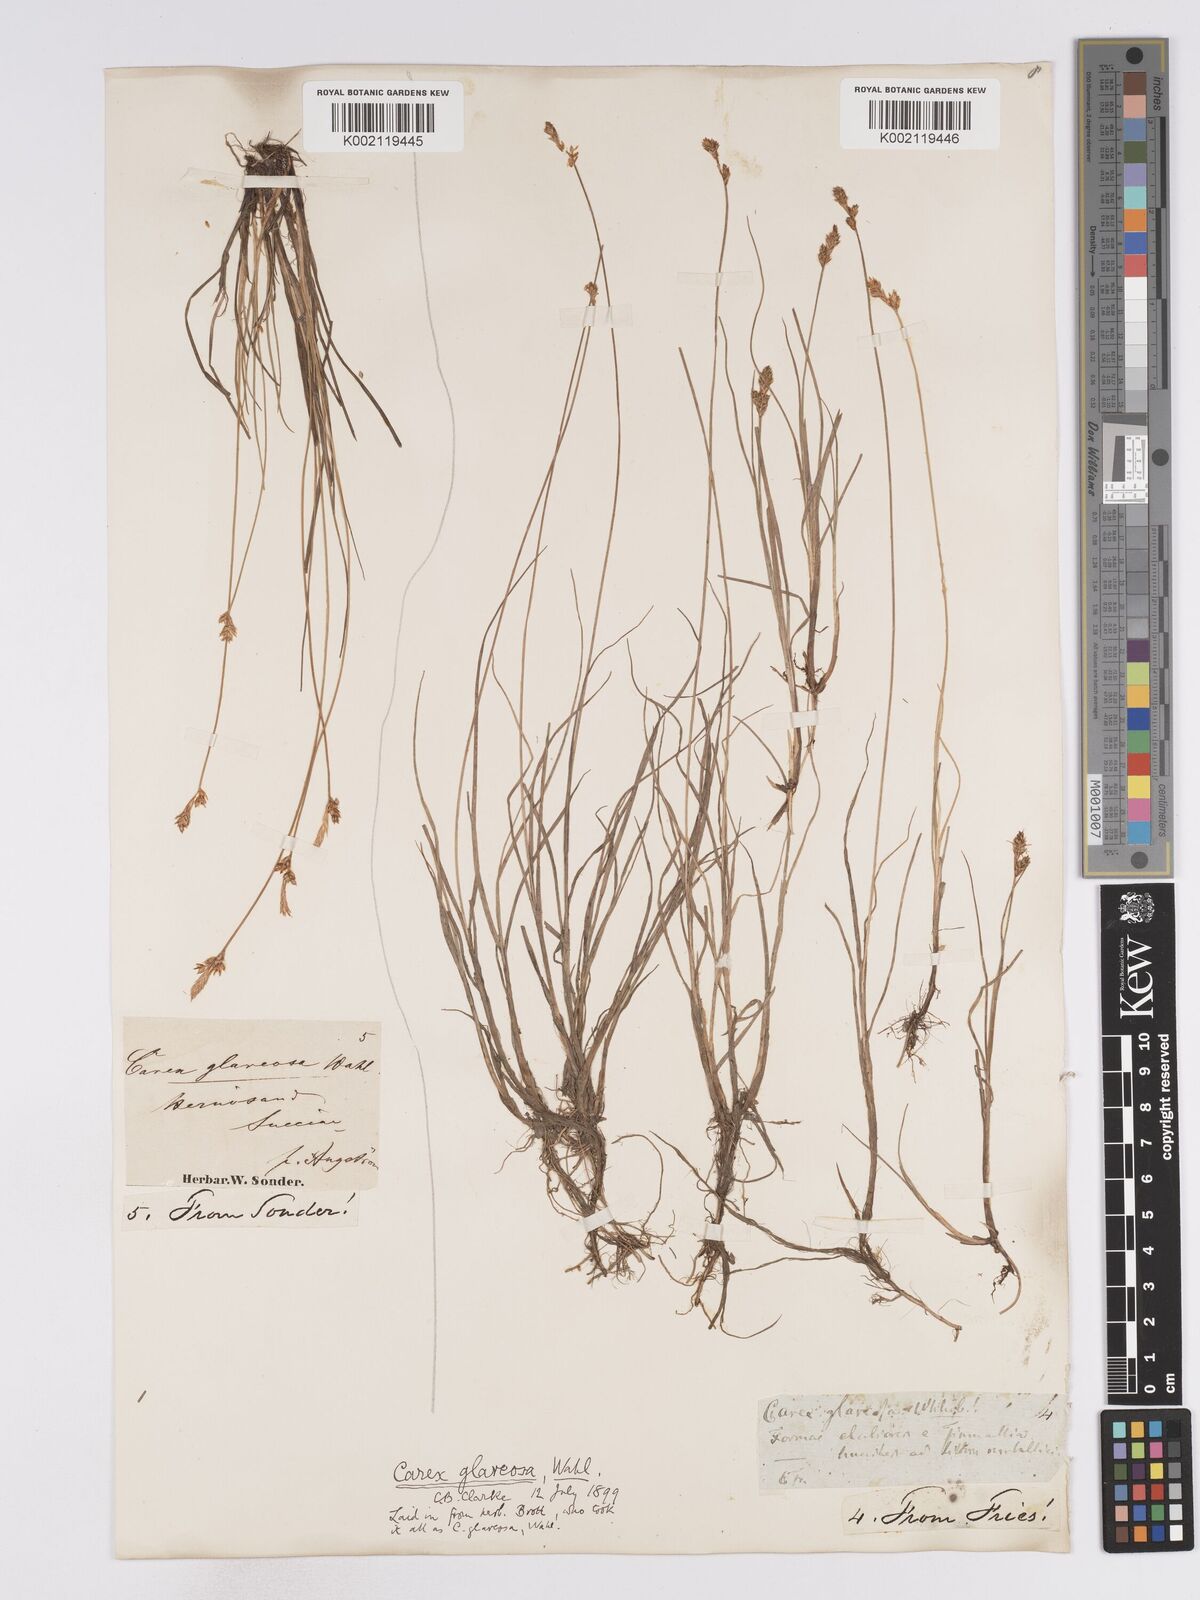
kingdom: Plantae
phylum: Tracheophyta
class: Liliopsida
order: Poales
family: Cyperaceae
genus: Carex
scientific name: Carex glareosa
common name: Clustered sedge
